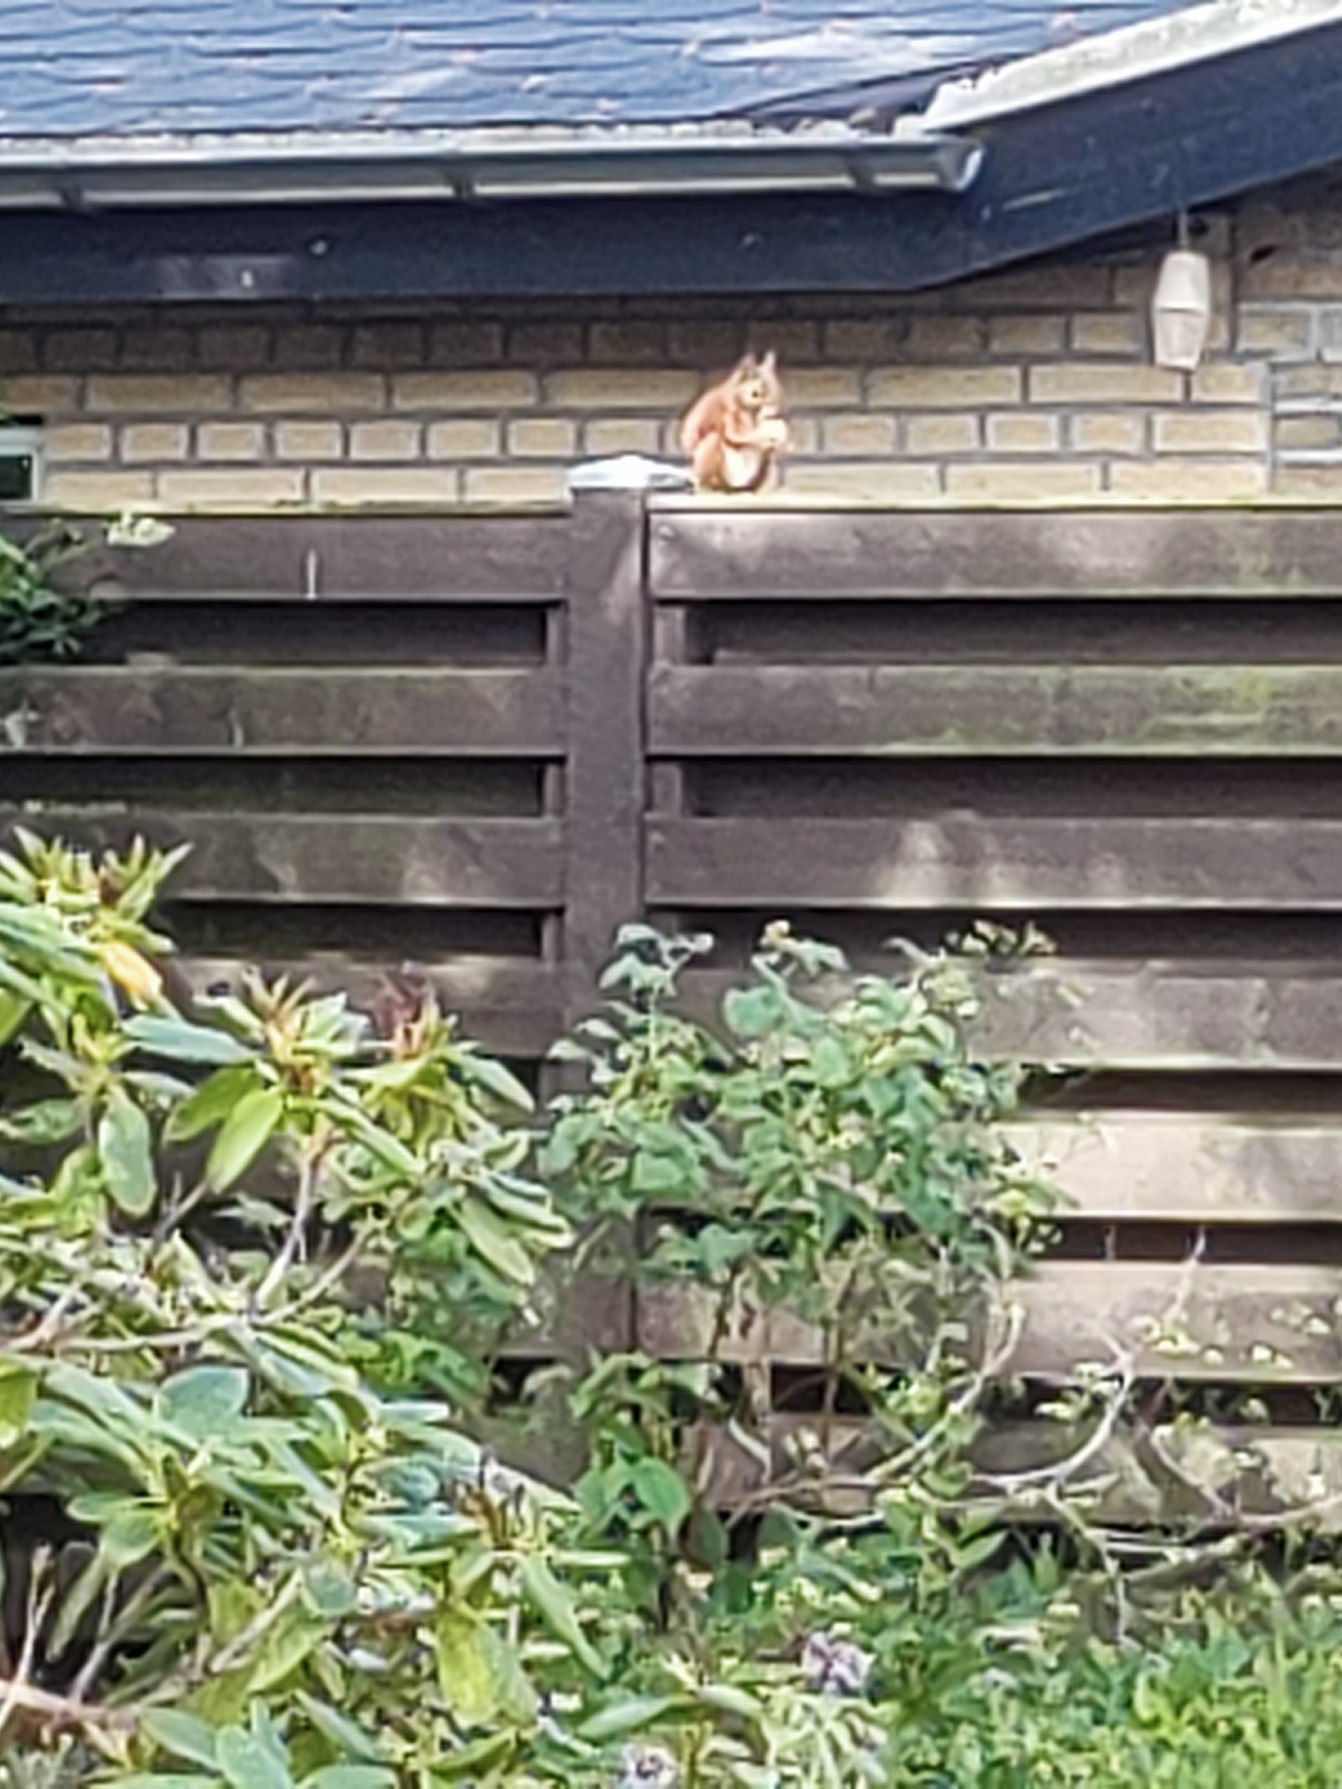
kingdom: Animalia
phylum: Chordata
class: Mammalia
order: Rodentia
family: Sciuridae
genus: Sciurus
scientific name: Sciurus vulgaris
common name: Egern
